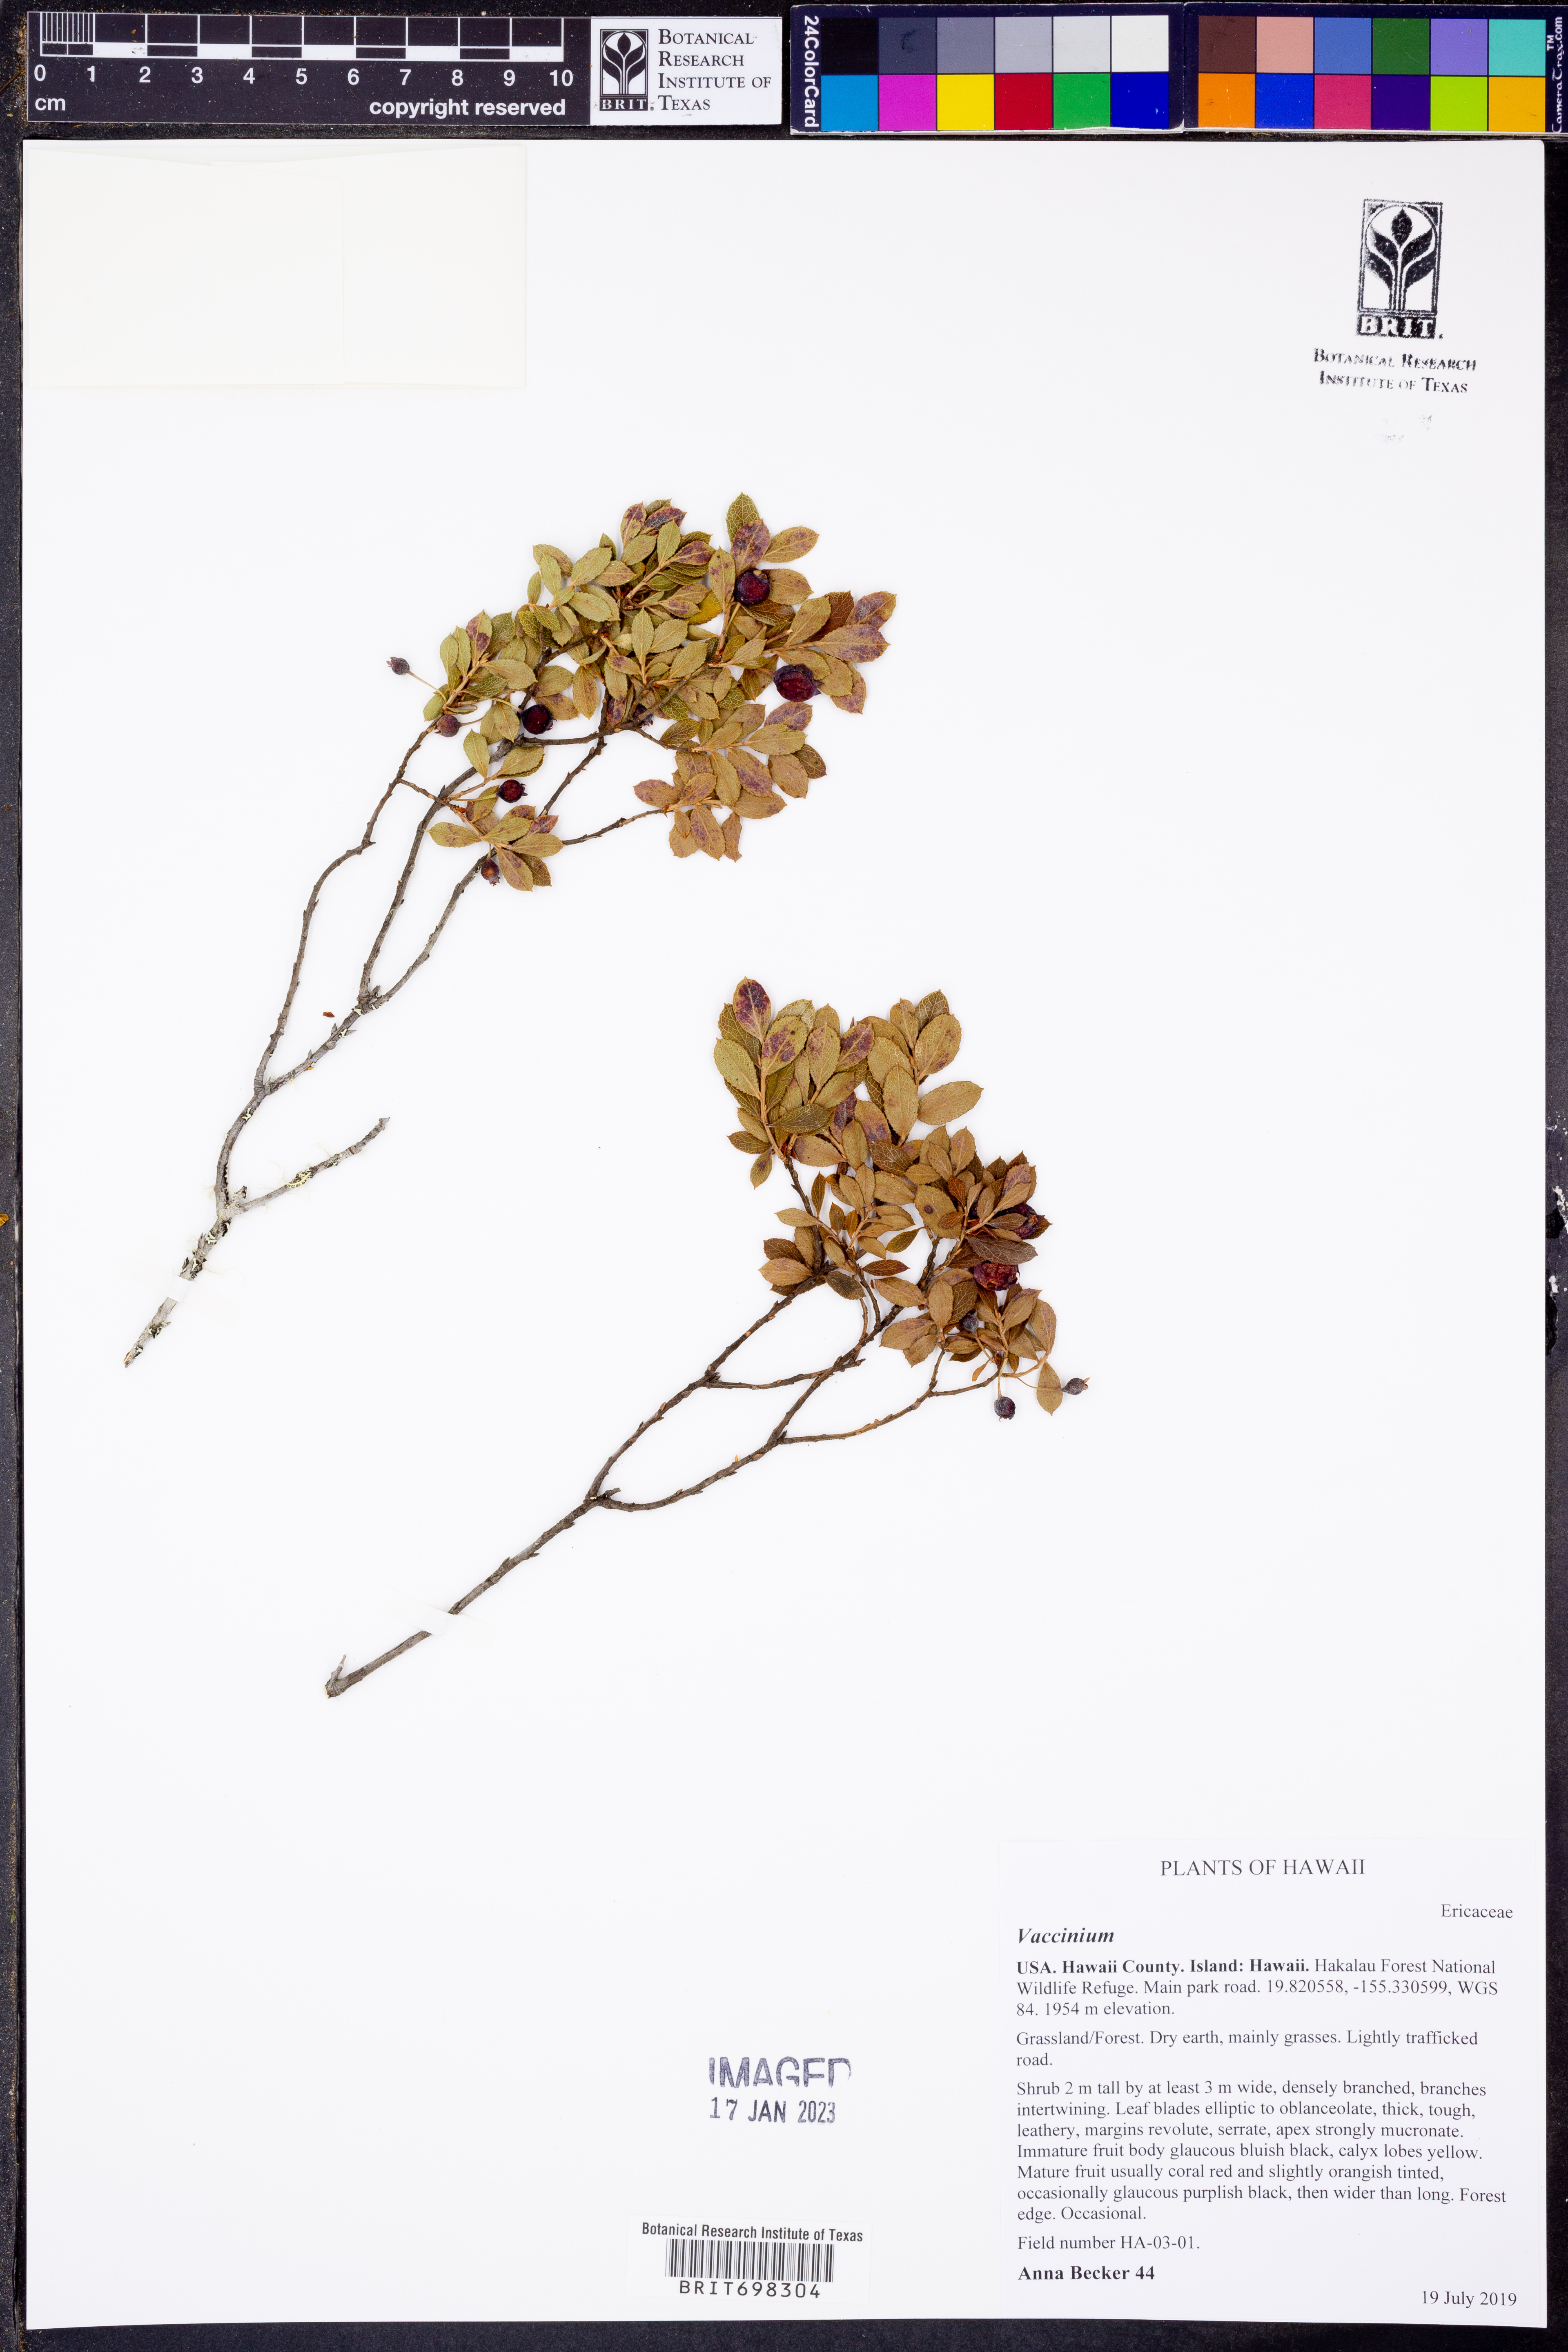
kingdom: Plantae
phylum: Tracheophyta
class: Magnoliopsida
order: Ericales
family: Ericaceae
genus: Vaccinium
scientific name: Vaccinium
